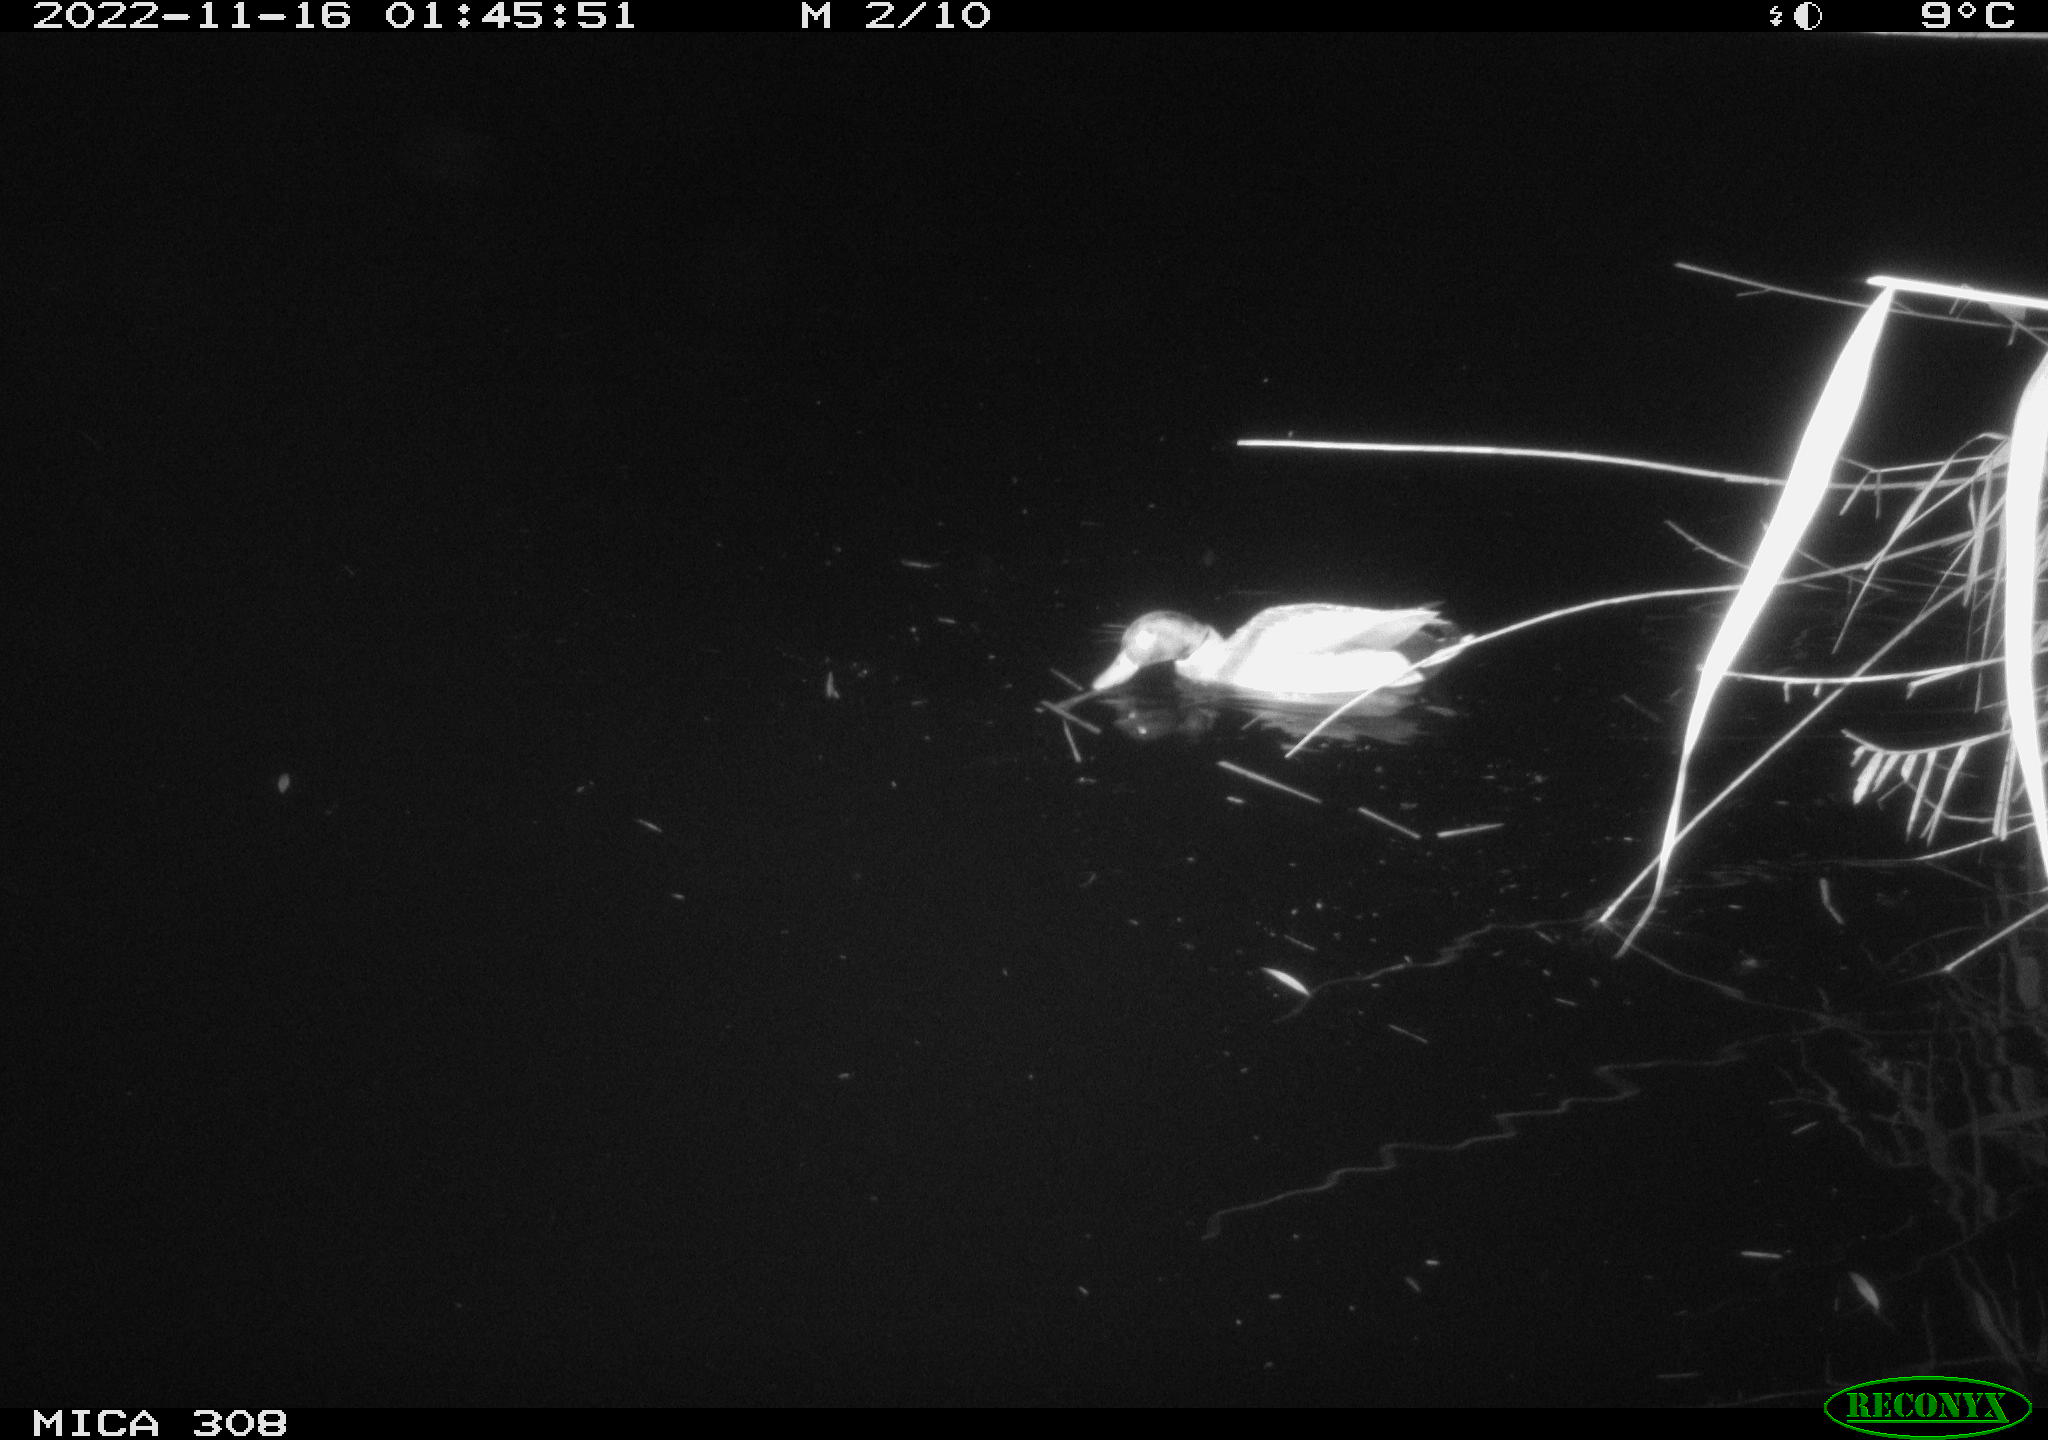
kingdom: Animalia
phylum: Chordata
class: Aves
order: Anseriformes
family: Anatidae
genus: Anas
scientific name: Anas
